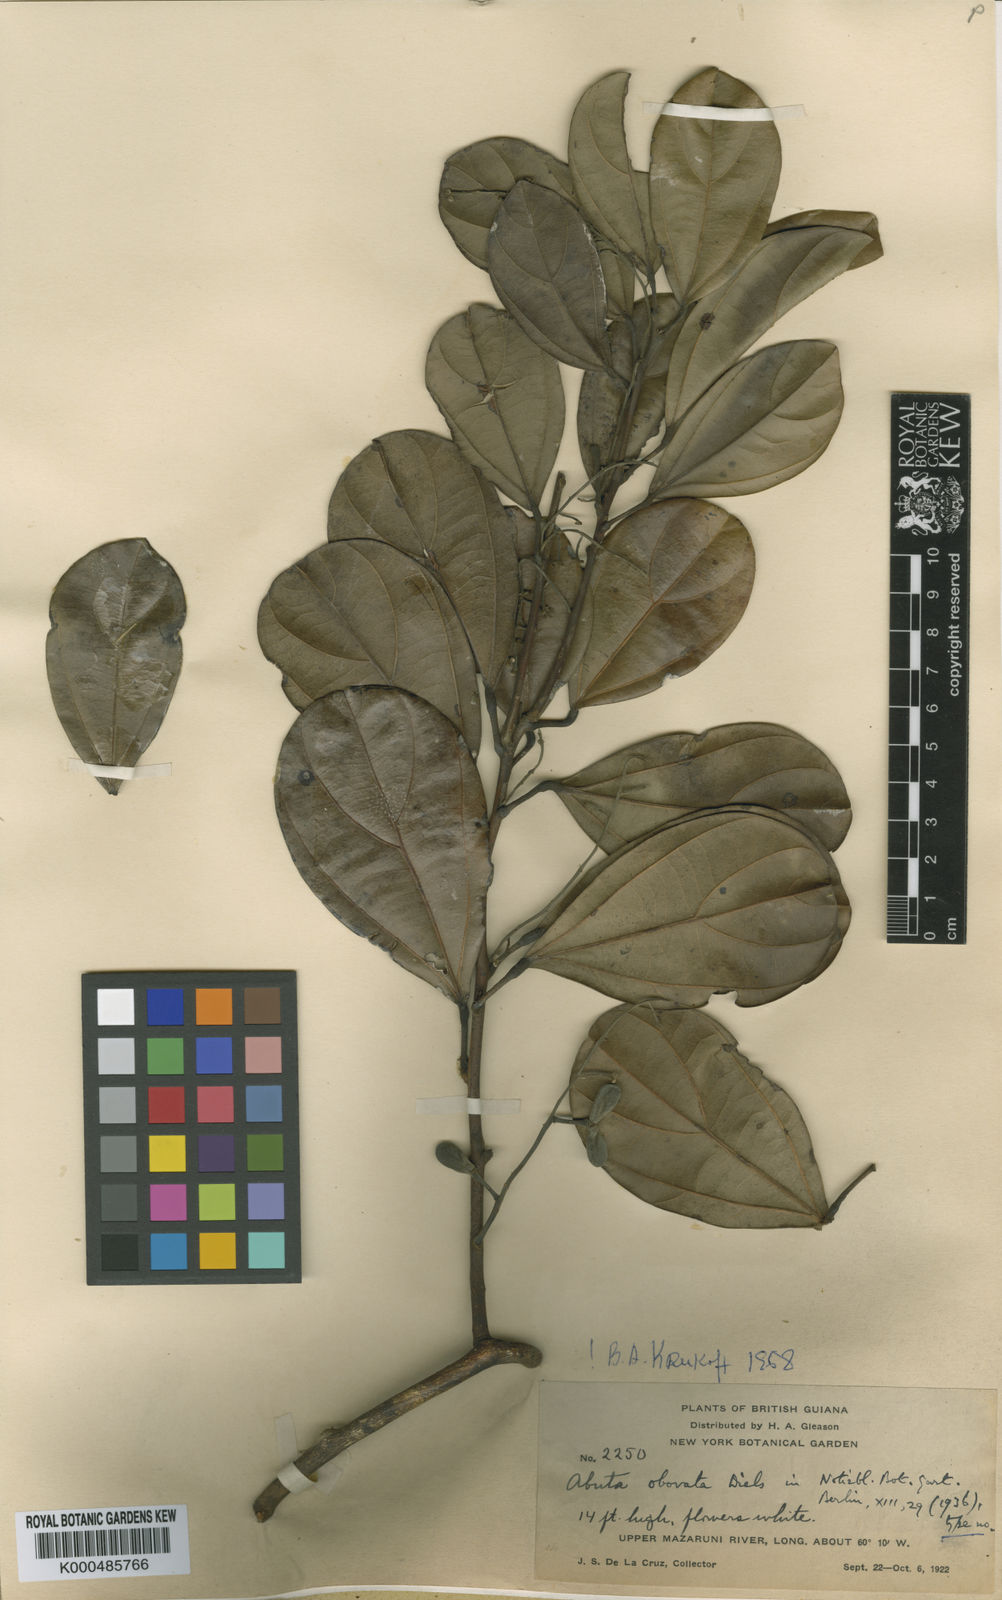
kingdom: Plantae
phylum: Tracheophyta
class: Magnoliopsida
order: Ranunculales
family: Menispermaceae
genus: Abuta
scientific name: Abuta obovata
